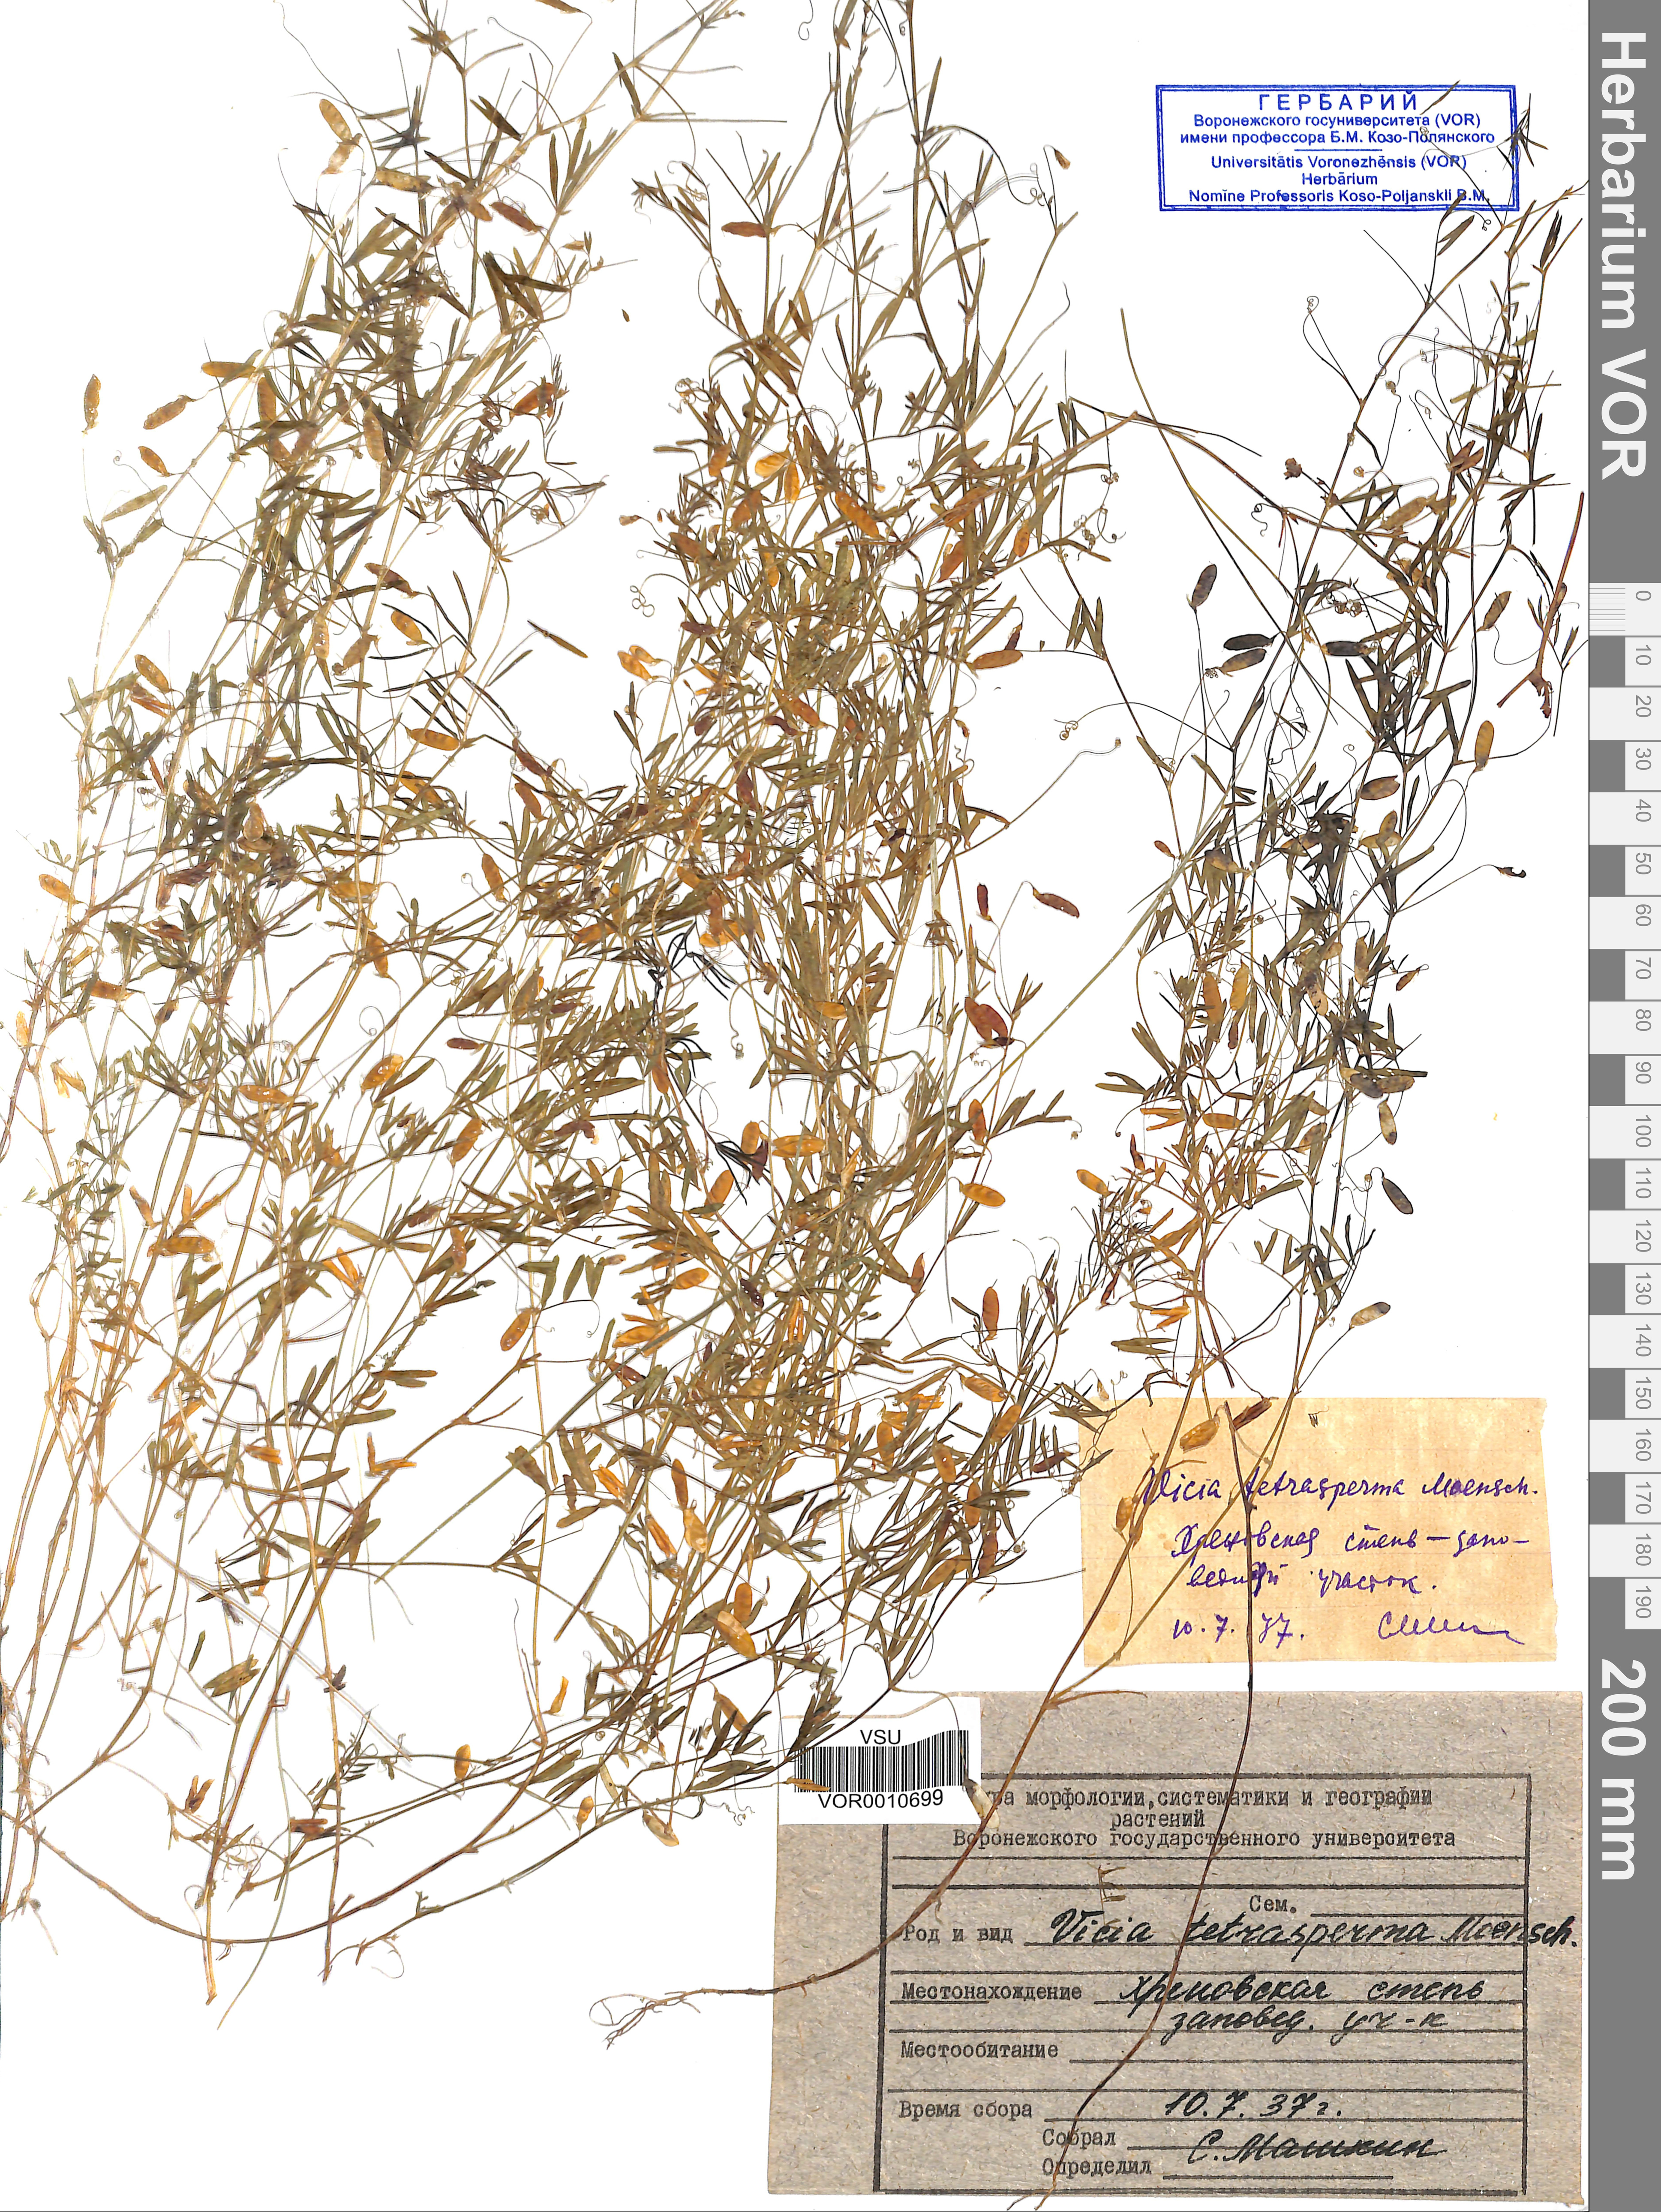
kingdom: Plantae
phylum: Tracheophyta
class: Magnoliopsida
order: Fabales
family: Fabaceae
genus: Vicia
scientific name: Vicia tetrasperma
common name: Smooth tare
